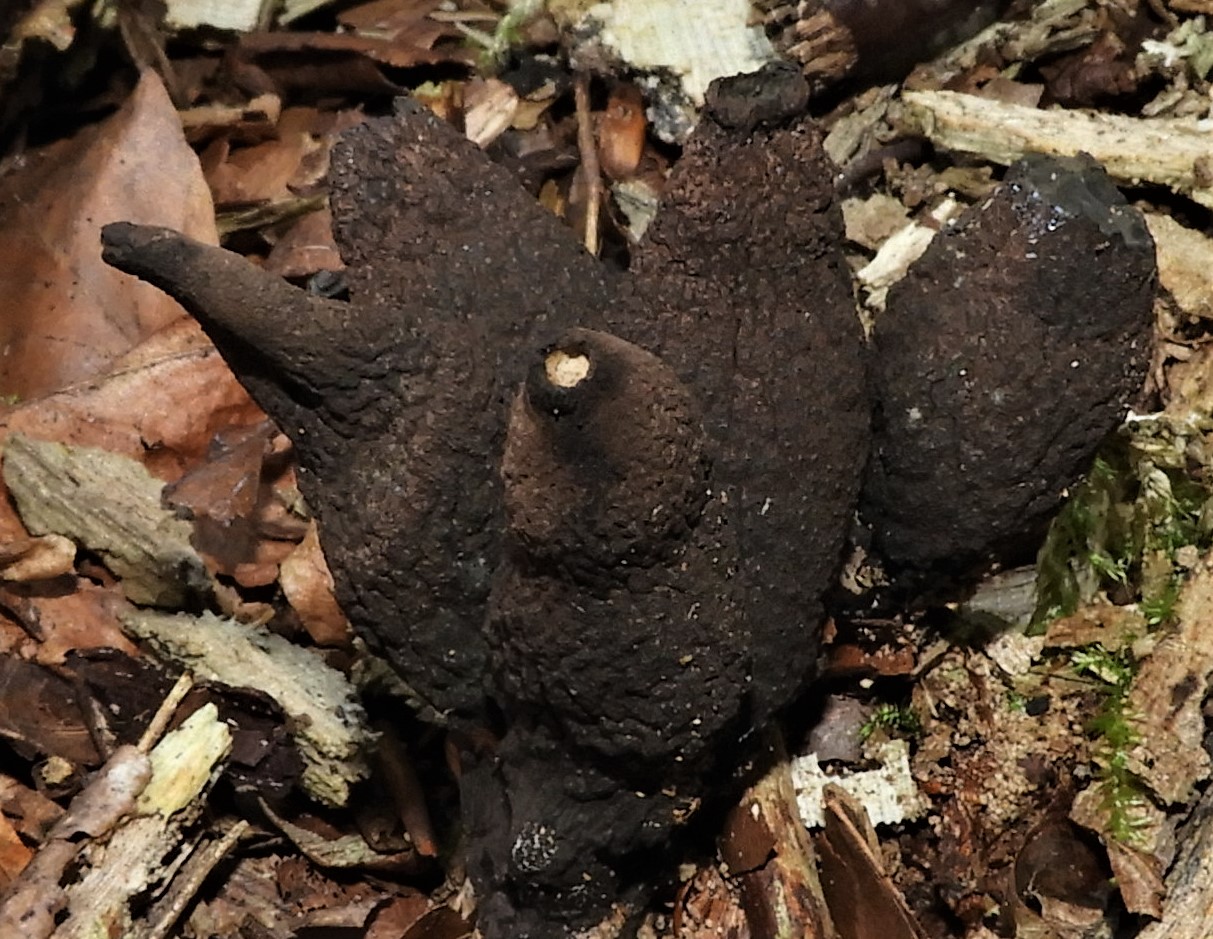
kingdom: Fungi
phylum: Ascomycota
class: Sordariomycetes
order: Xylariales
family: Xylariaceae
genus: Xylaria
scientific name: Xylaria polymorpha
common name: kølle-stødsvamp
